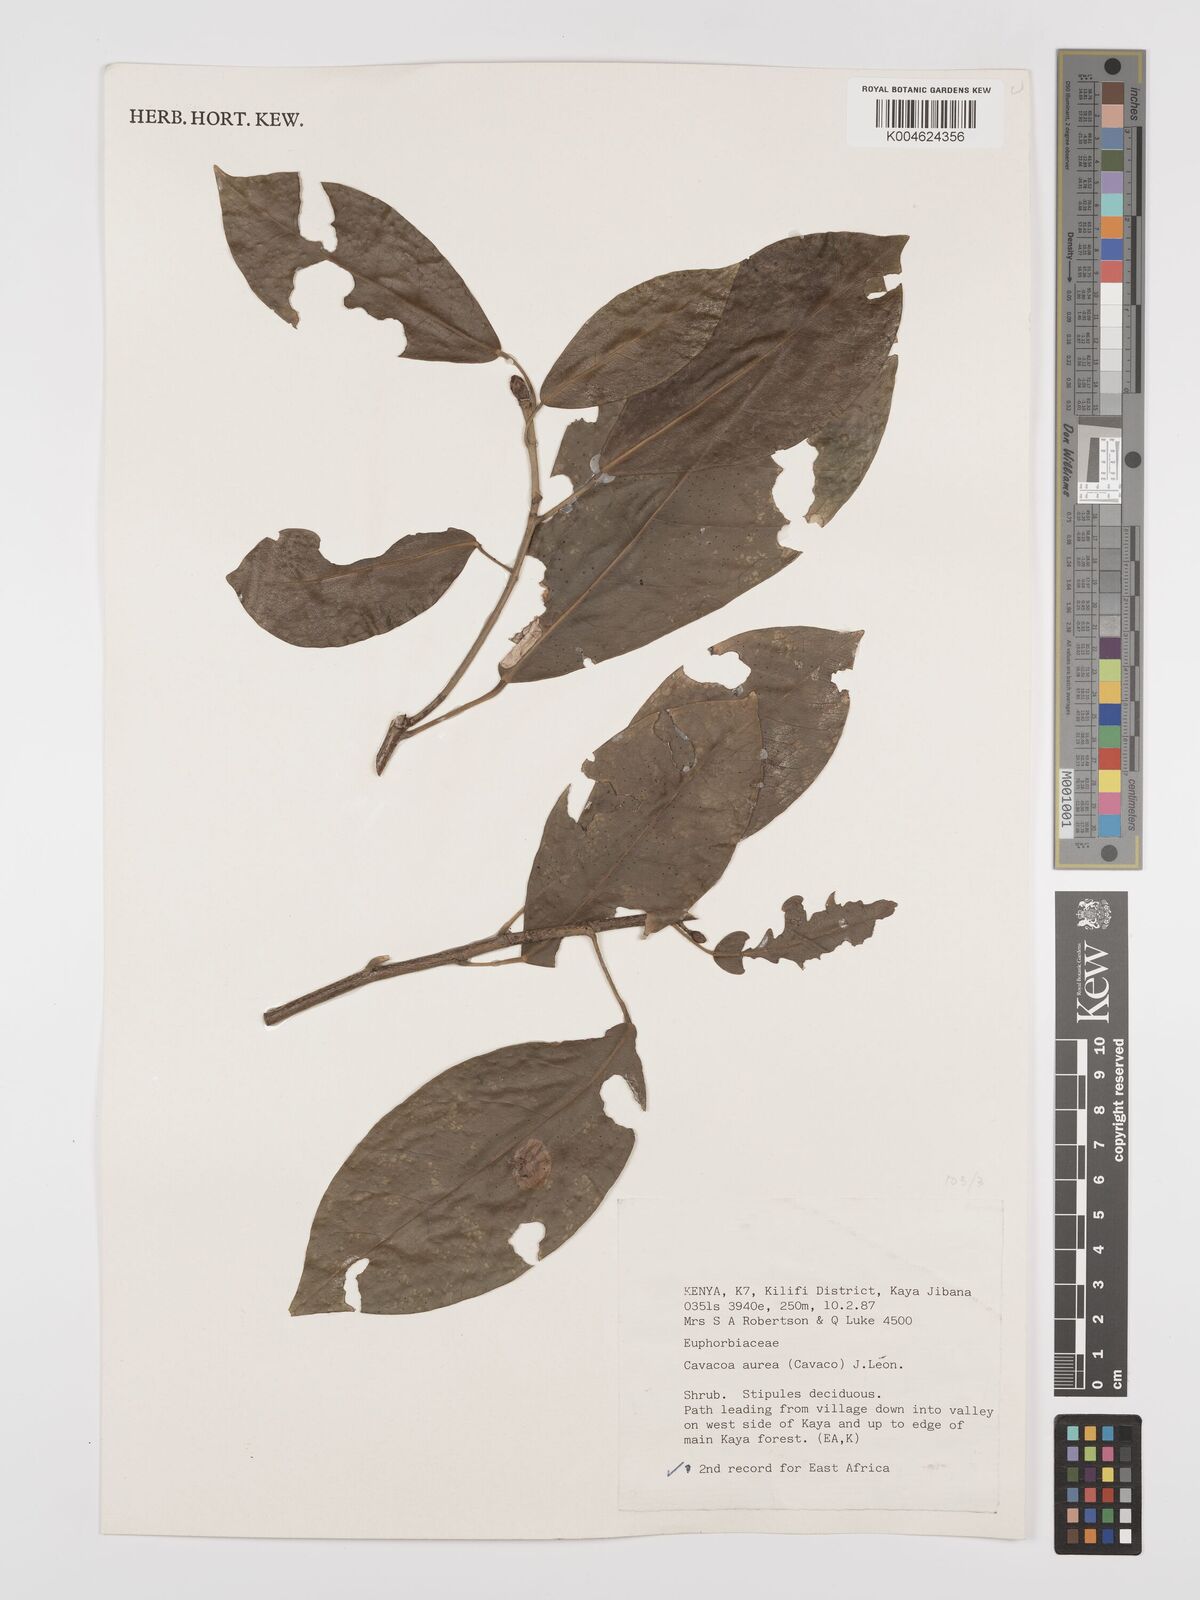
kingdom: Plantae
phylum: Tracheophyta
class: Magnoliopsida
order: Malpighiales
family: Euphorbiaceae
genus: Cavacoa
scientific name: Cavacoa aurea
